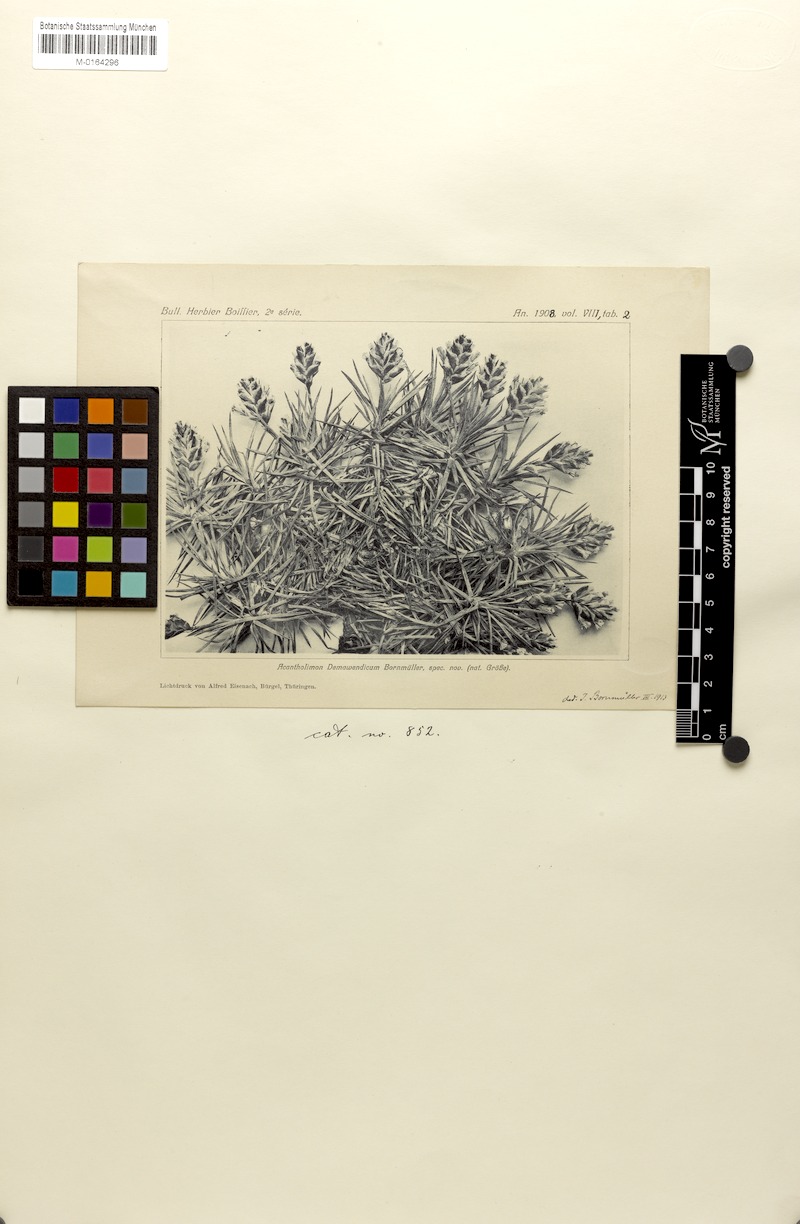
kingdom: Plantae
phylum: Tracheophyta
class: Magnoliopsida
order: Caryophyllales
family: Plumbaginaceae
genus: Acantholimon
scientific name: Acantholimon demavendicum
